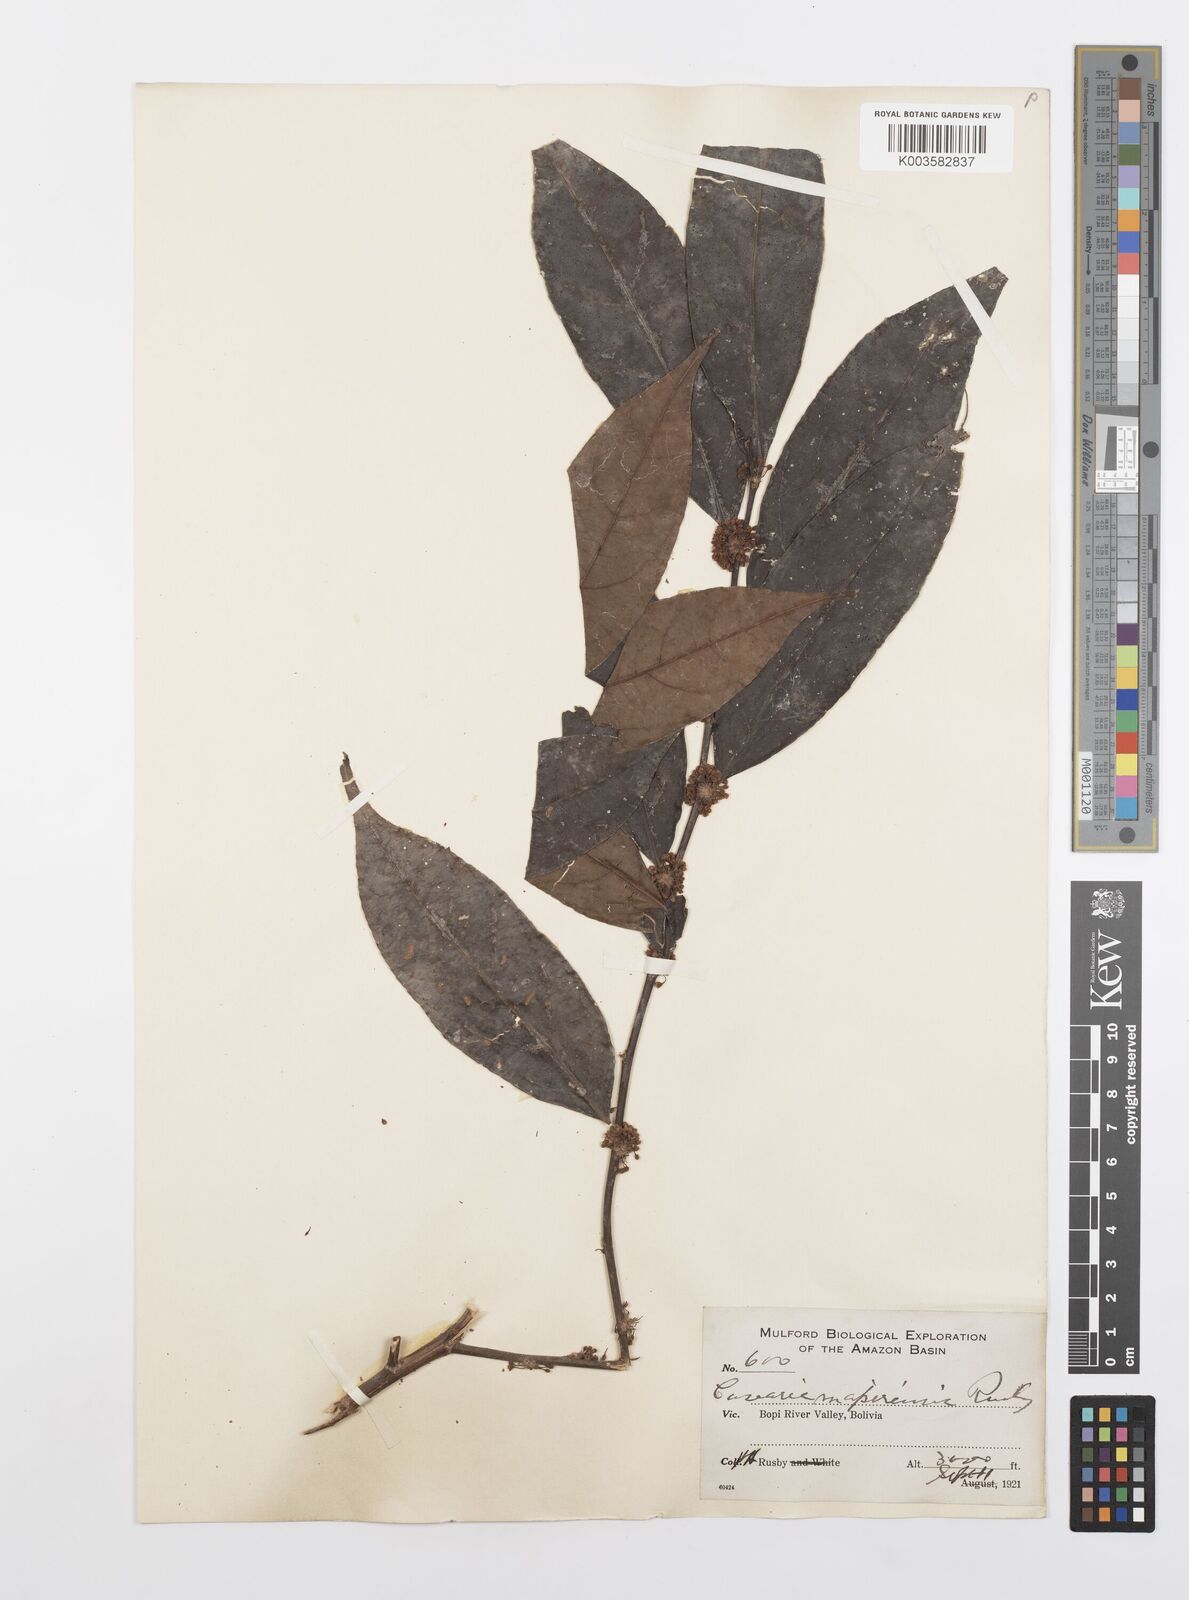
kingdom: Plantae
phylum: Tracheophyta
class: Magnoliopsida
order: Malpighiales
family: Salicaceae
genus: Casearia
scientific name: Casearia sylvestris
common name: Wild sage
